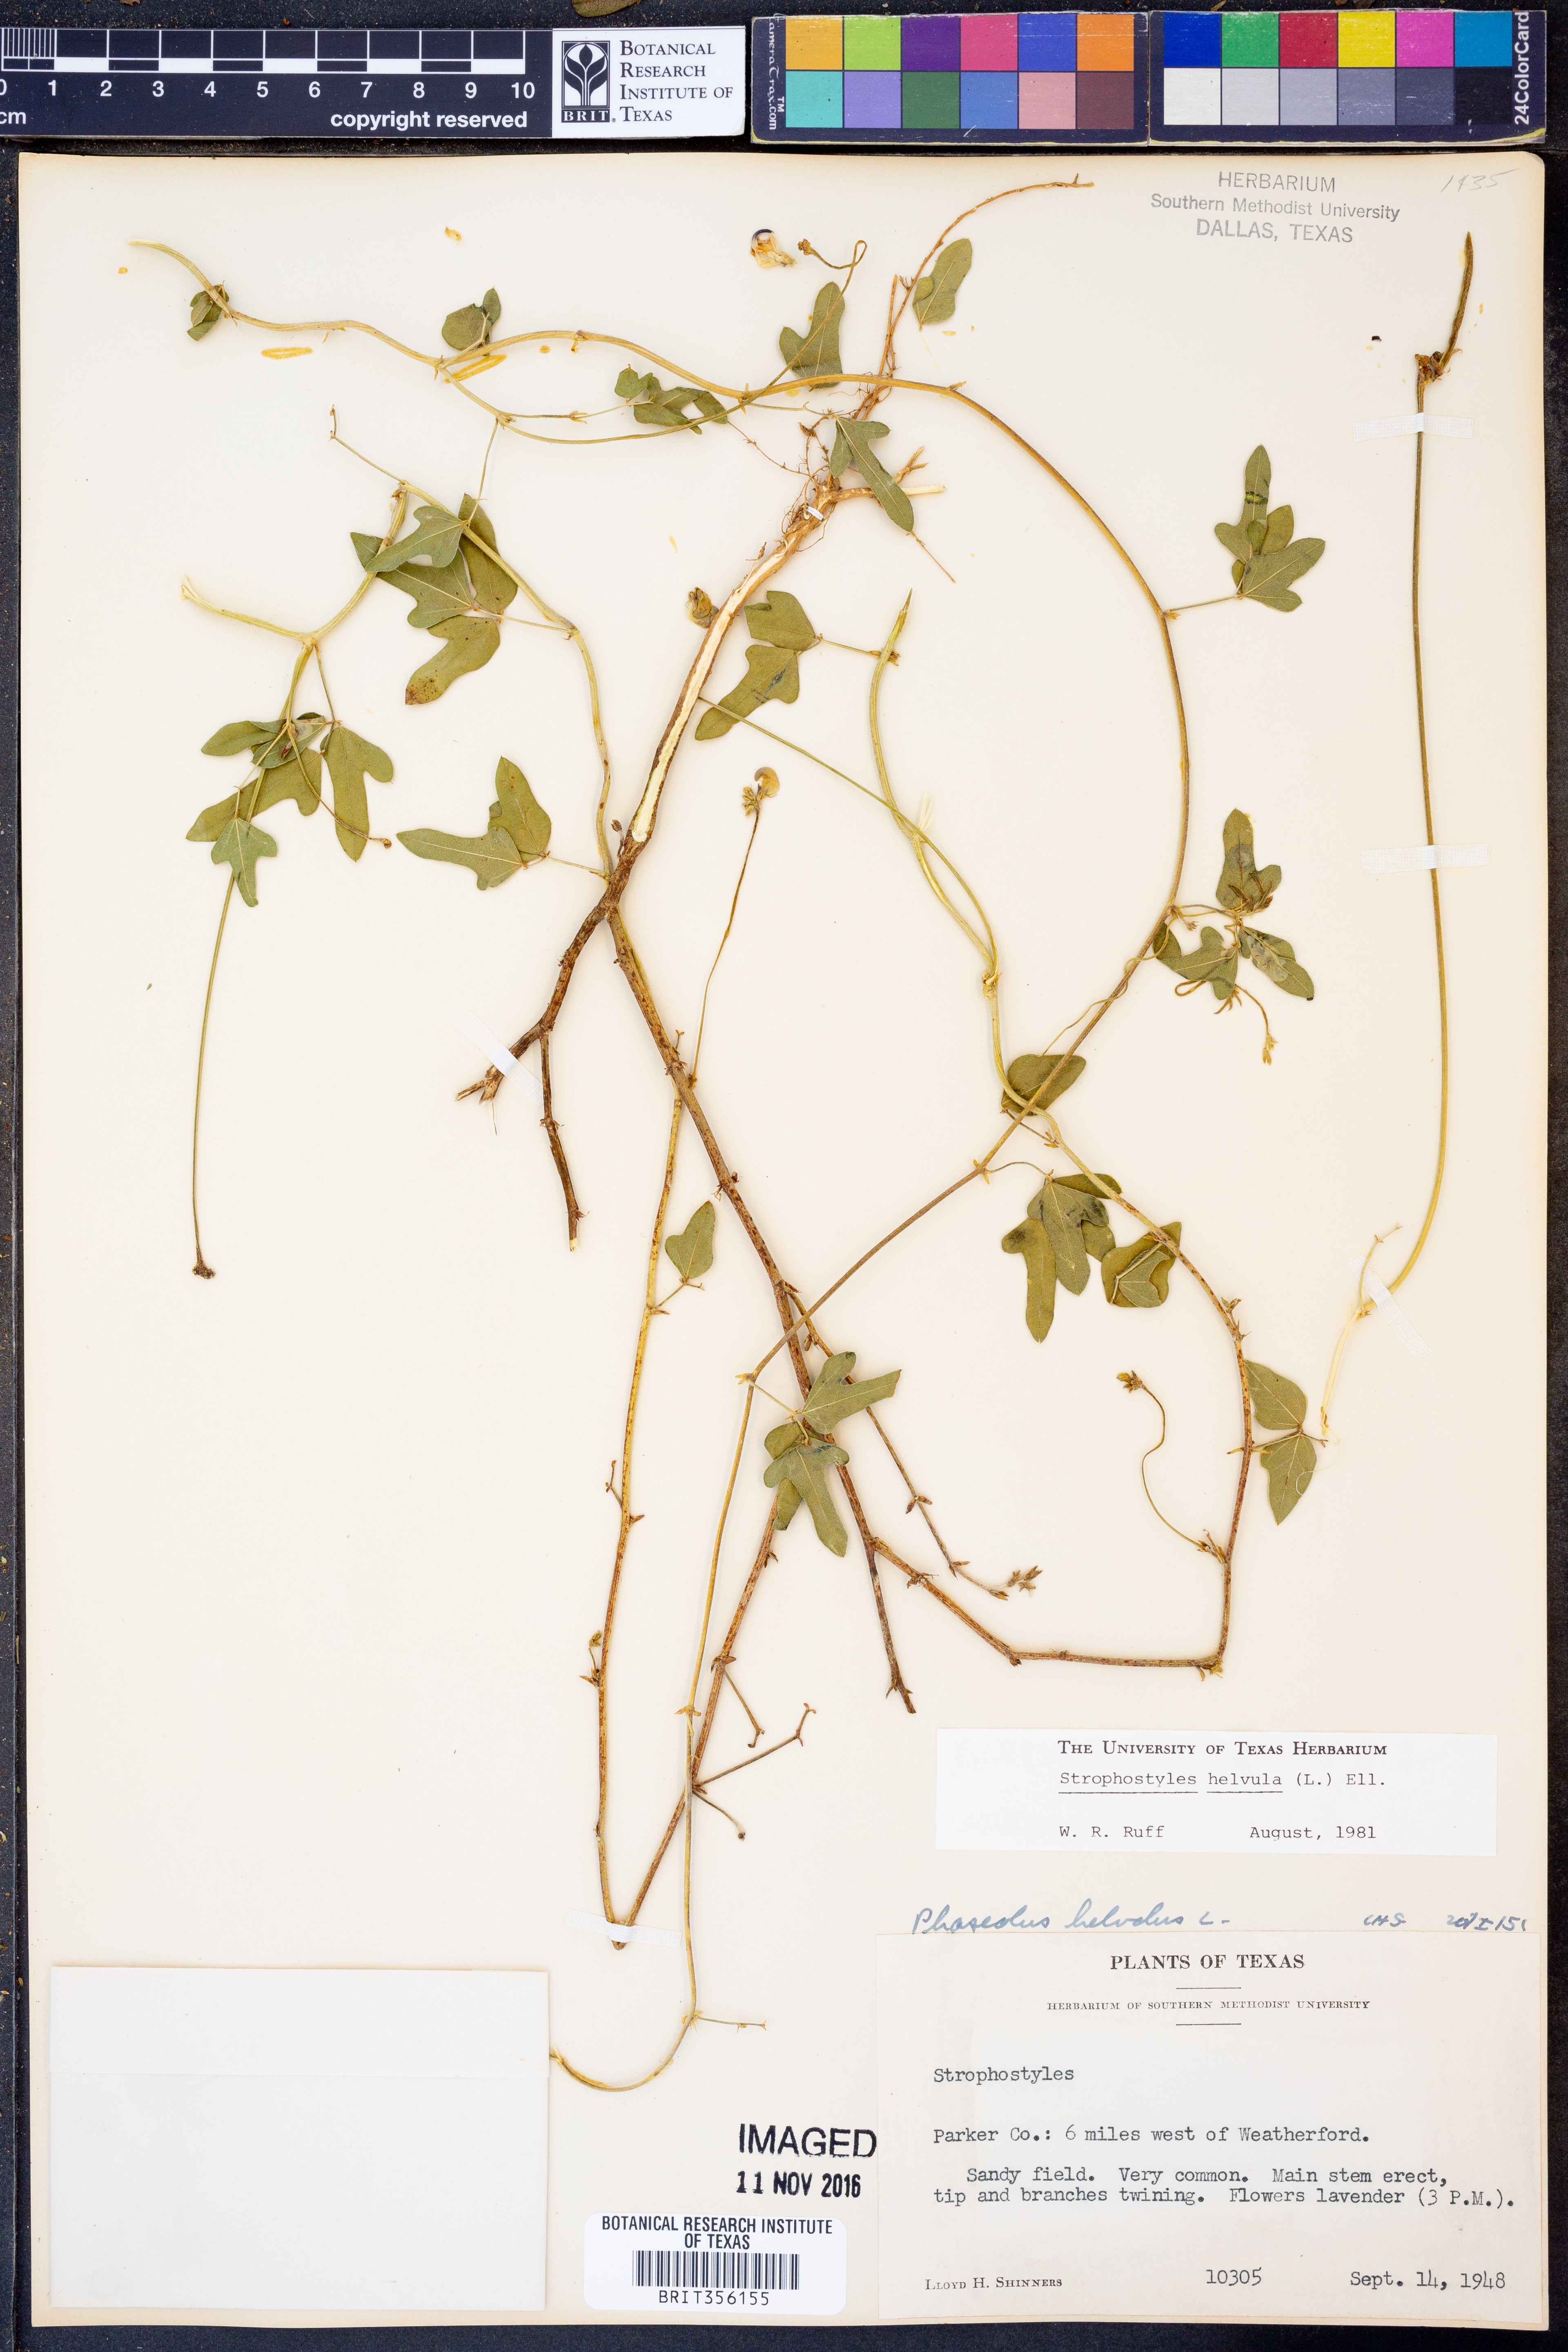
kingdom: Plantae
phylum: Tracheophyta
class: Magnoliopsida
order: Fabales
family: Fabaceae
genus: Strophostyles
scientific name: Strophostyles helvula
